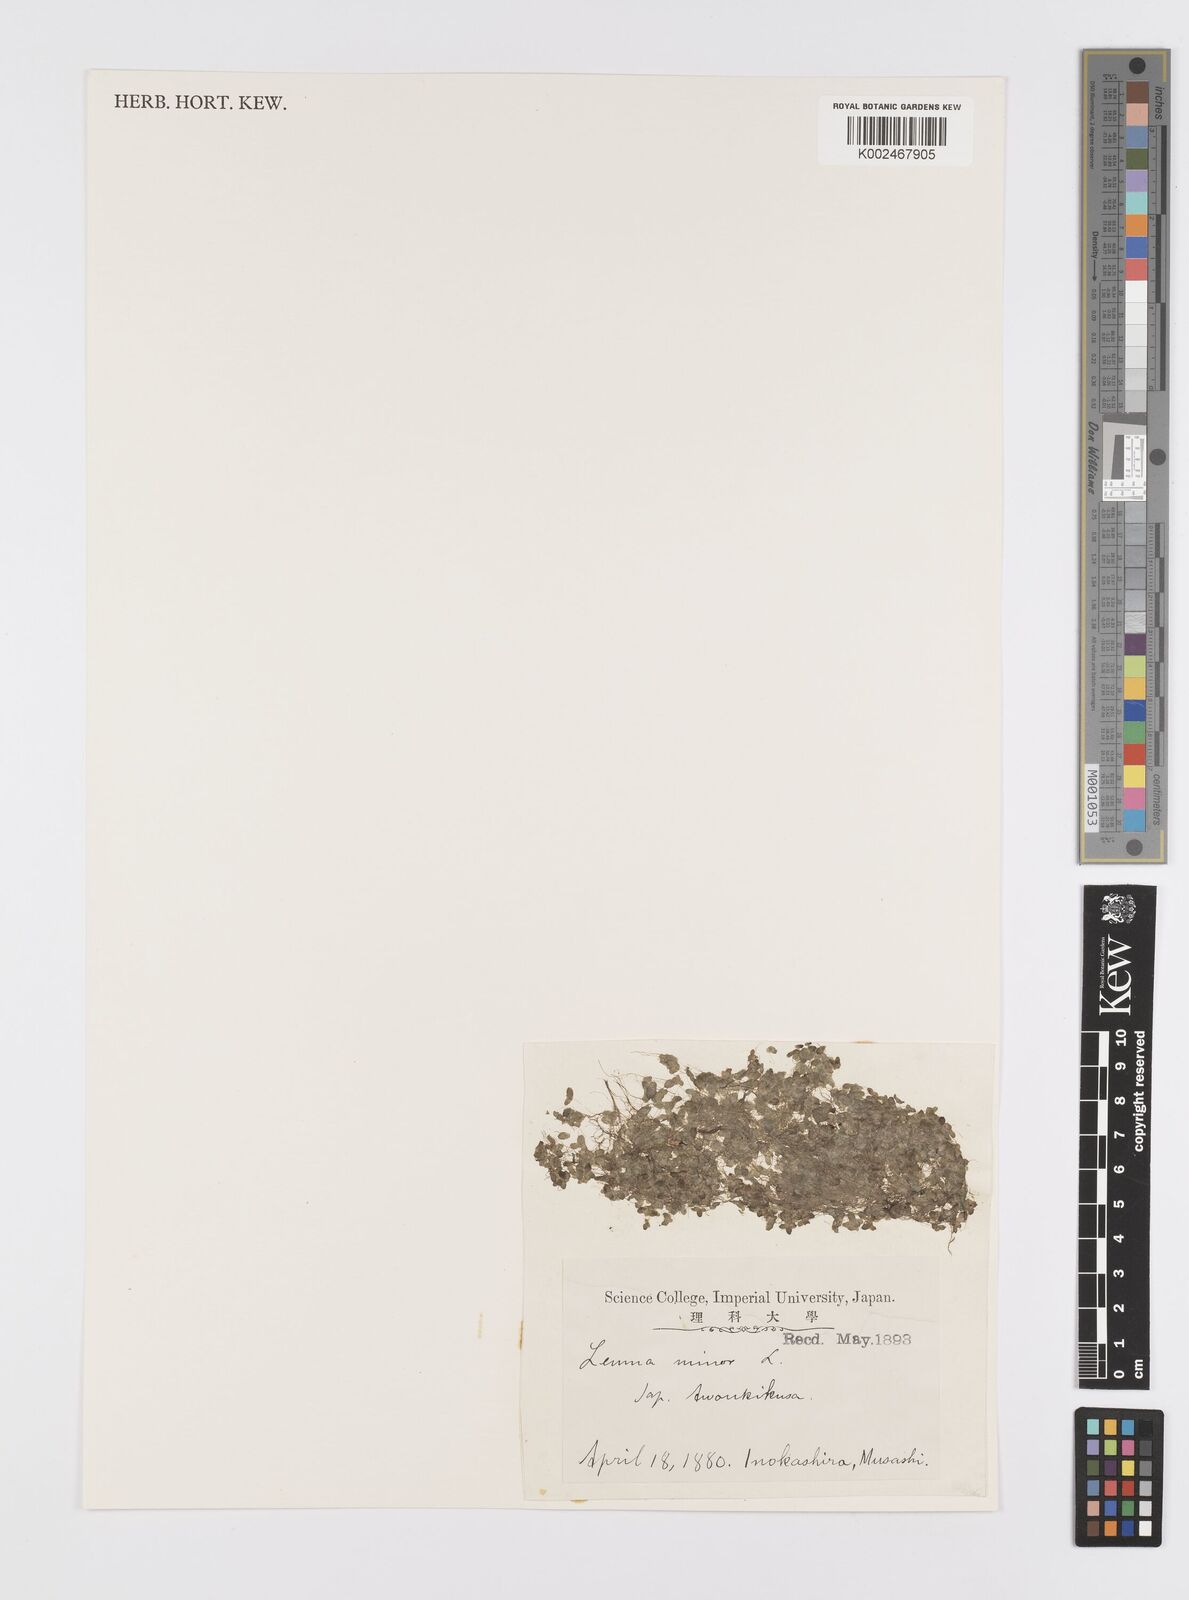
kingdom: Plantae
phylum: Tracheophyta
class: Liliopsida
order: Alismatales
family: Araceae
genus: Lemna
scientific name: Lemna minor
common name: Common duckweed
